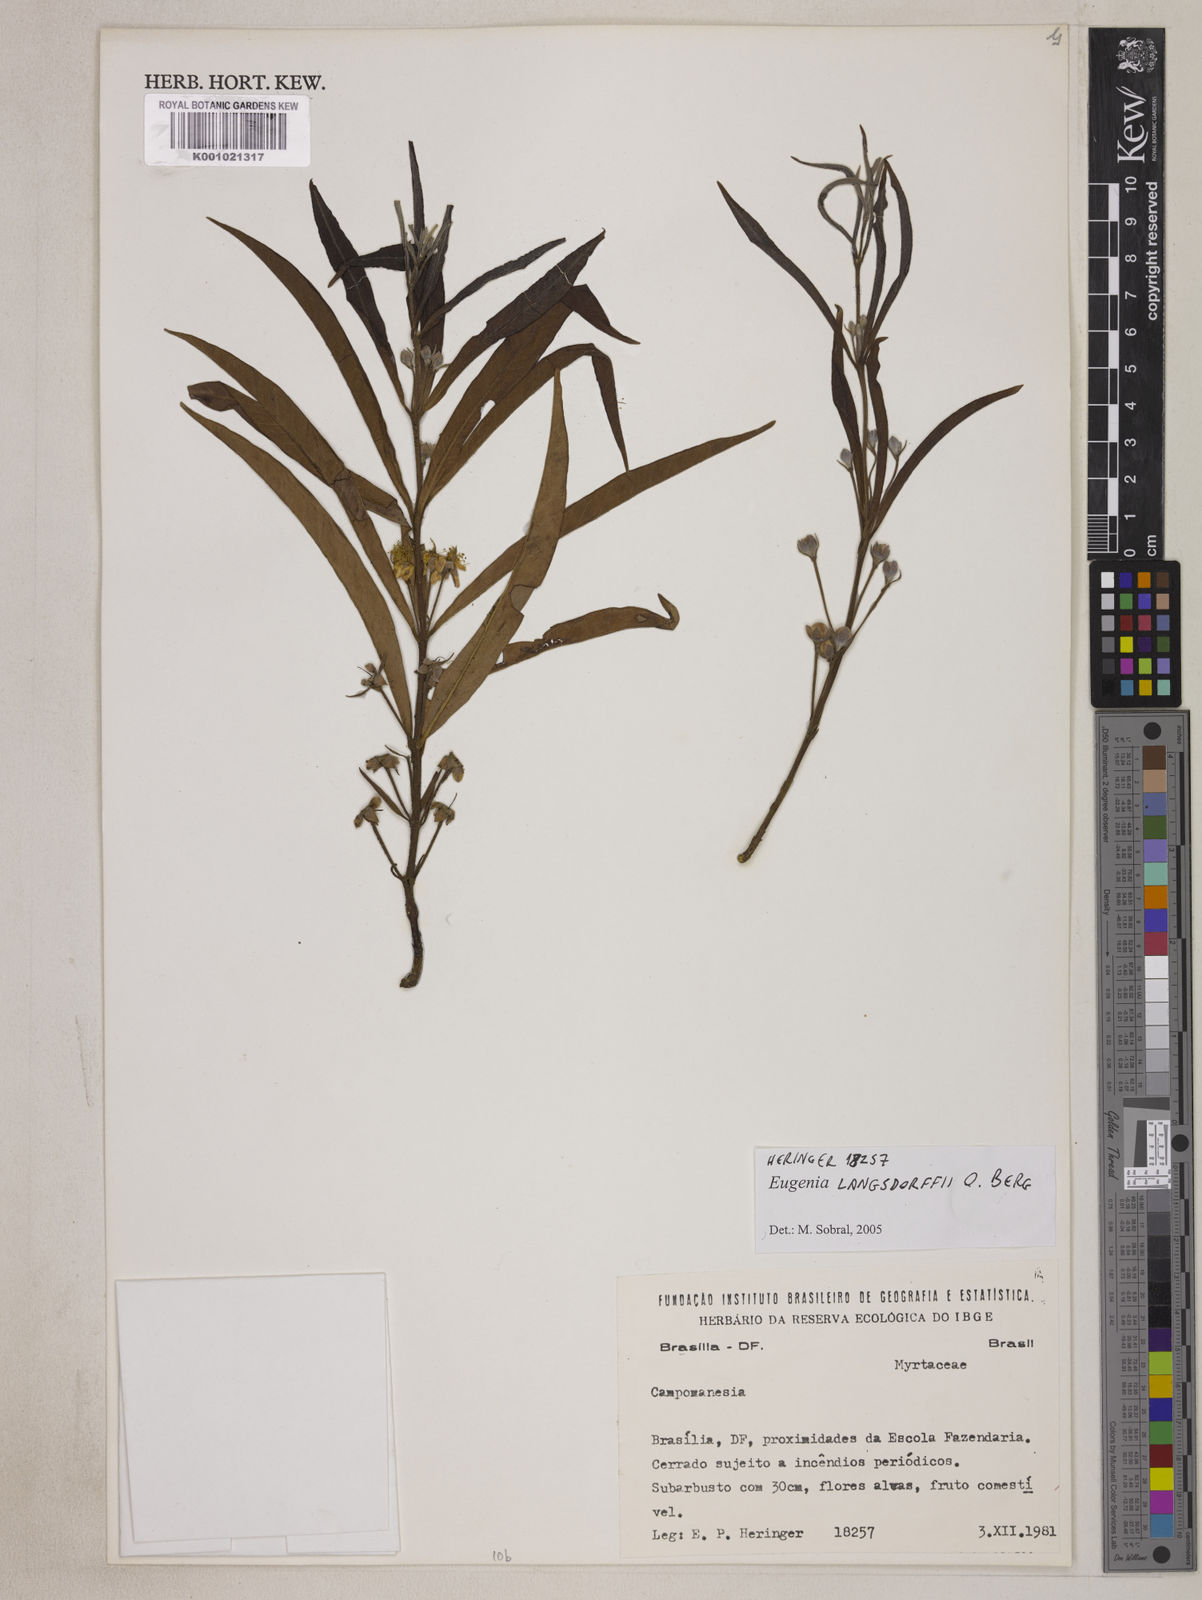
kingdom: Plantae
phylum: Tracheophyta
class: Magnoliopsida
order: Myrtales
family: Myrtaceae
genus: Eugenia
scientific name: Eugenia langsdorffii
